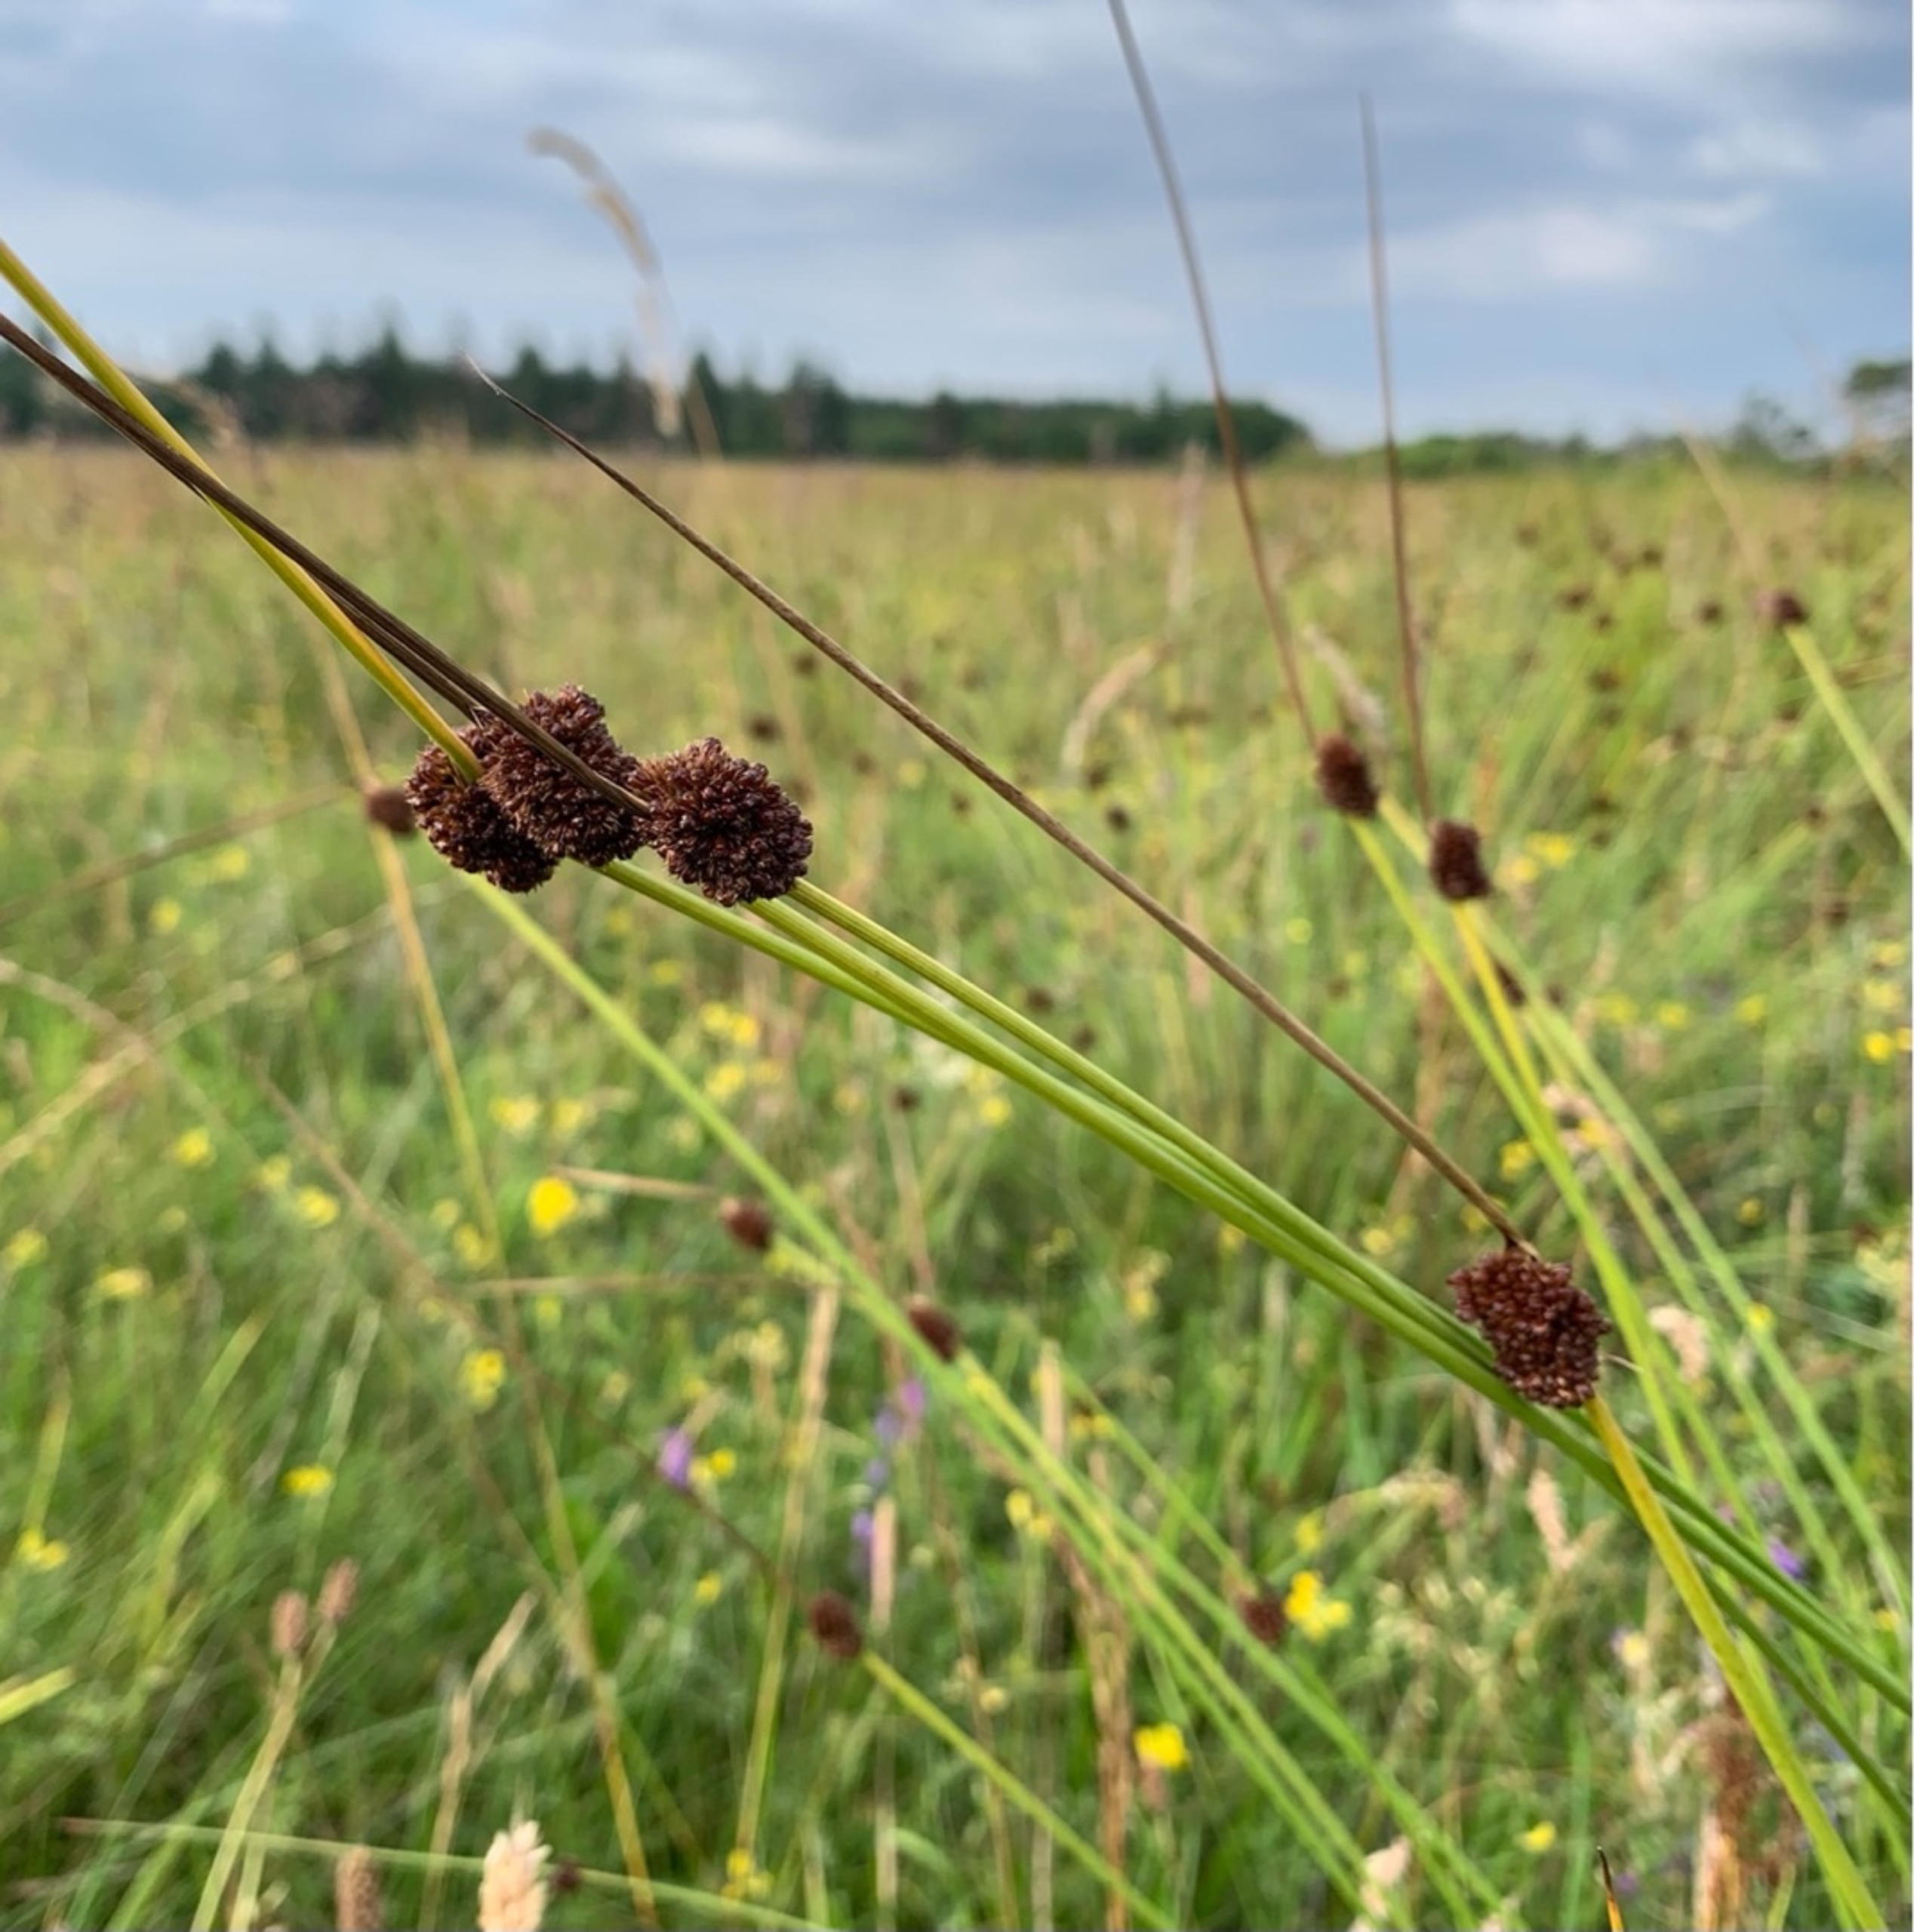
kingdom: Plantae
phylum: Tracheophyta
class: Liliopsida
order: Poales
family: Juncaceae
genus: Juncus
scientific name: Juncus conglomeratus
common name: Knop-siv
